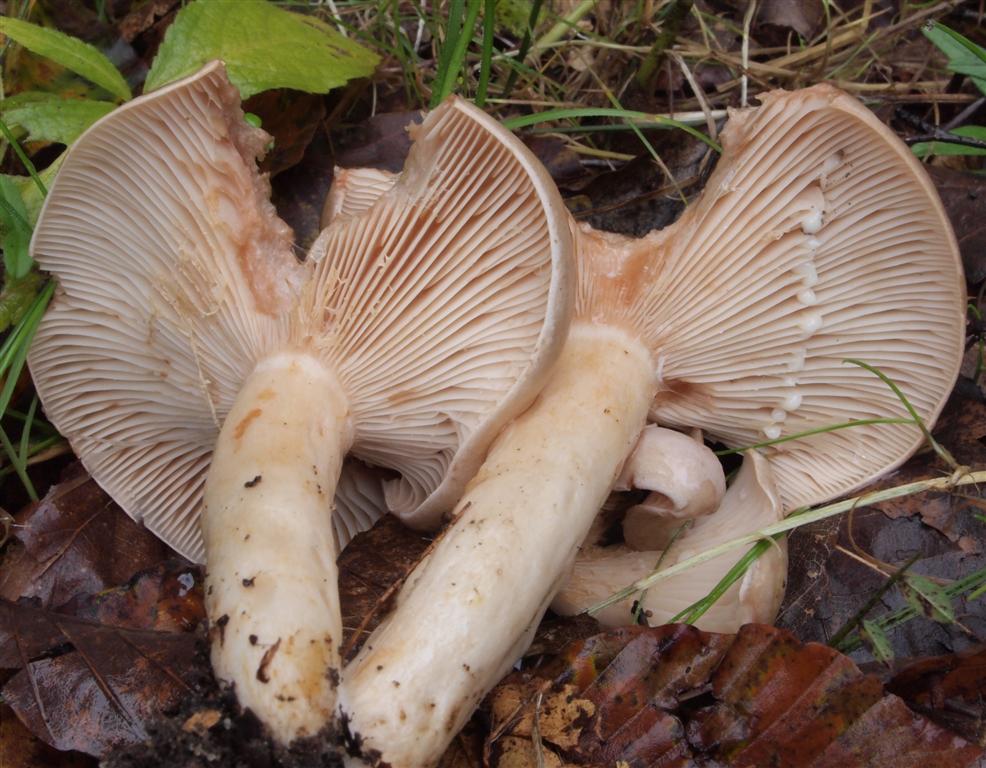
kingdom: Fungi
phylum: Basidiomycota
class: Agaricomycetes
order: Russulales
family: Russulaceae
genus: Lactarius
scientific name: Lactarius pallidus
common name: bleg mælkehat
